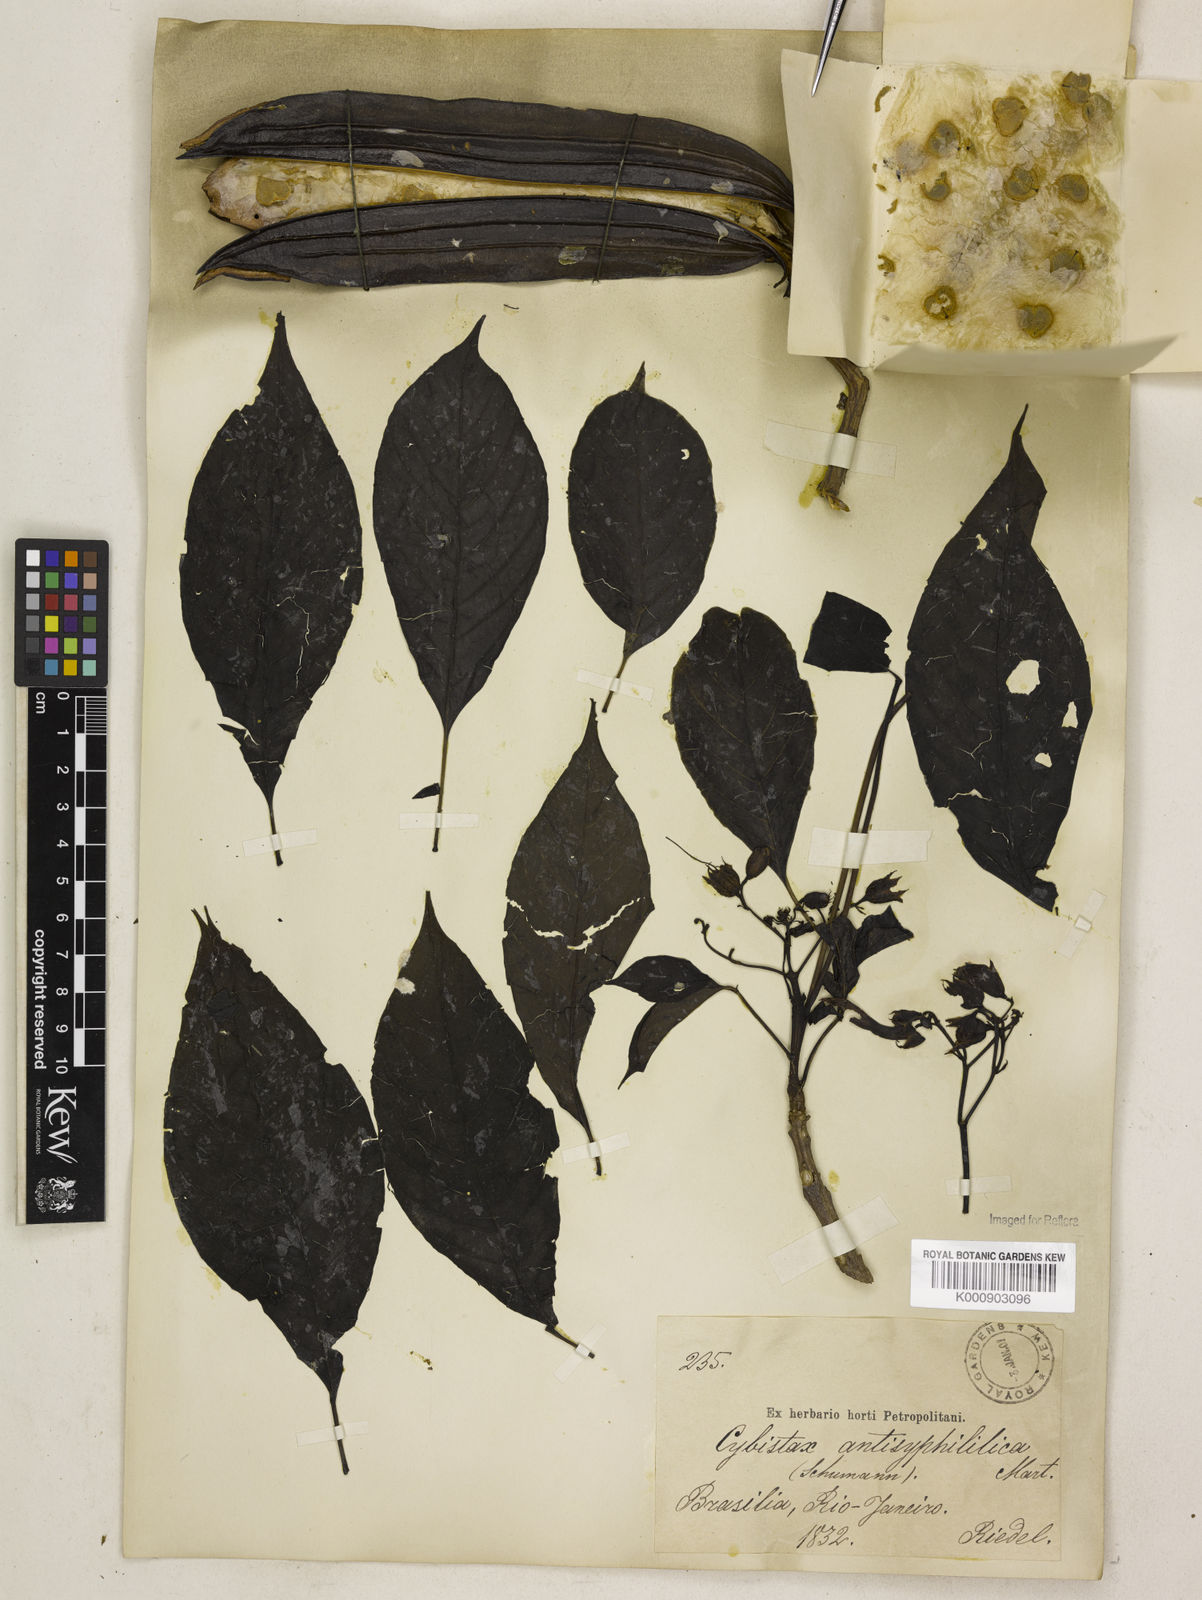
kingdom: Plantae
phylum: Tracheophyta
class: Magnoliopsida
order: Lamiales
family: Bignoniaceae
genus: Cybistax
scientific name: Cybistax antisyphilitica
